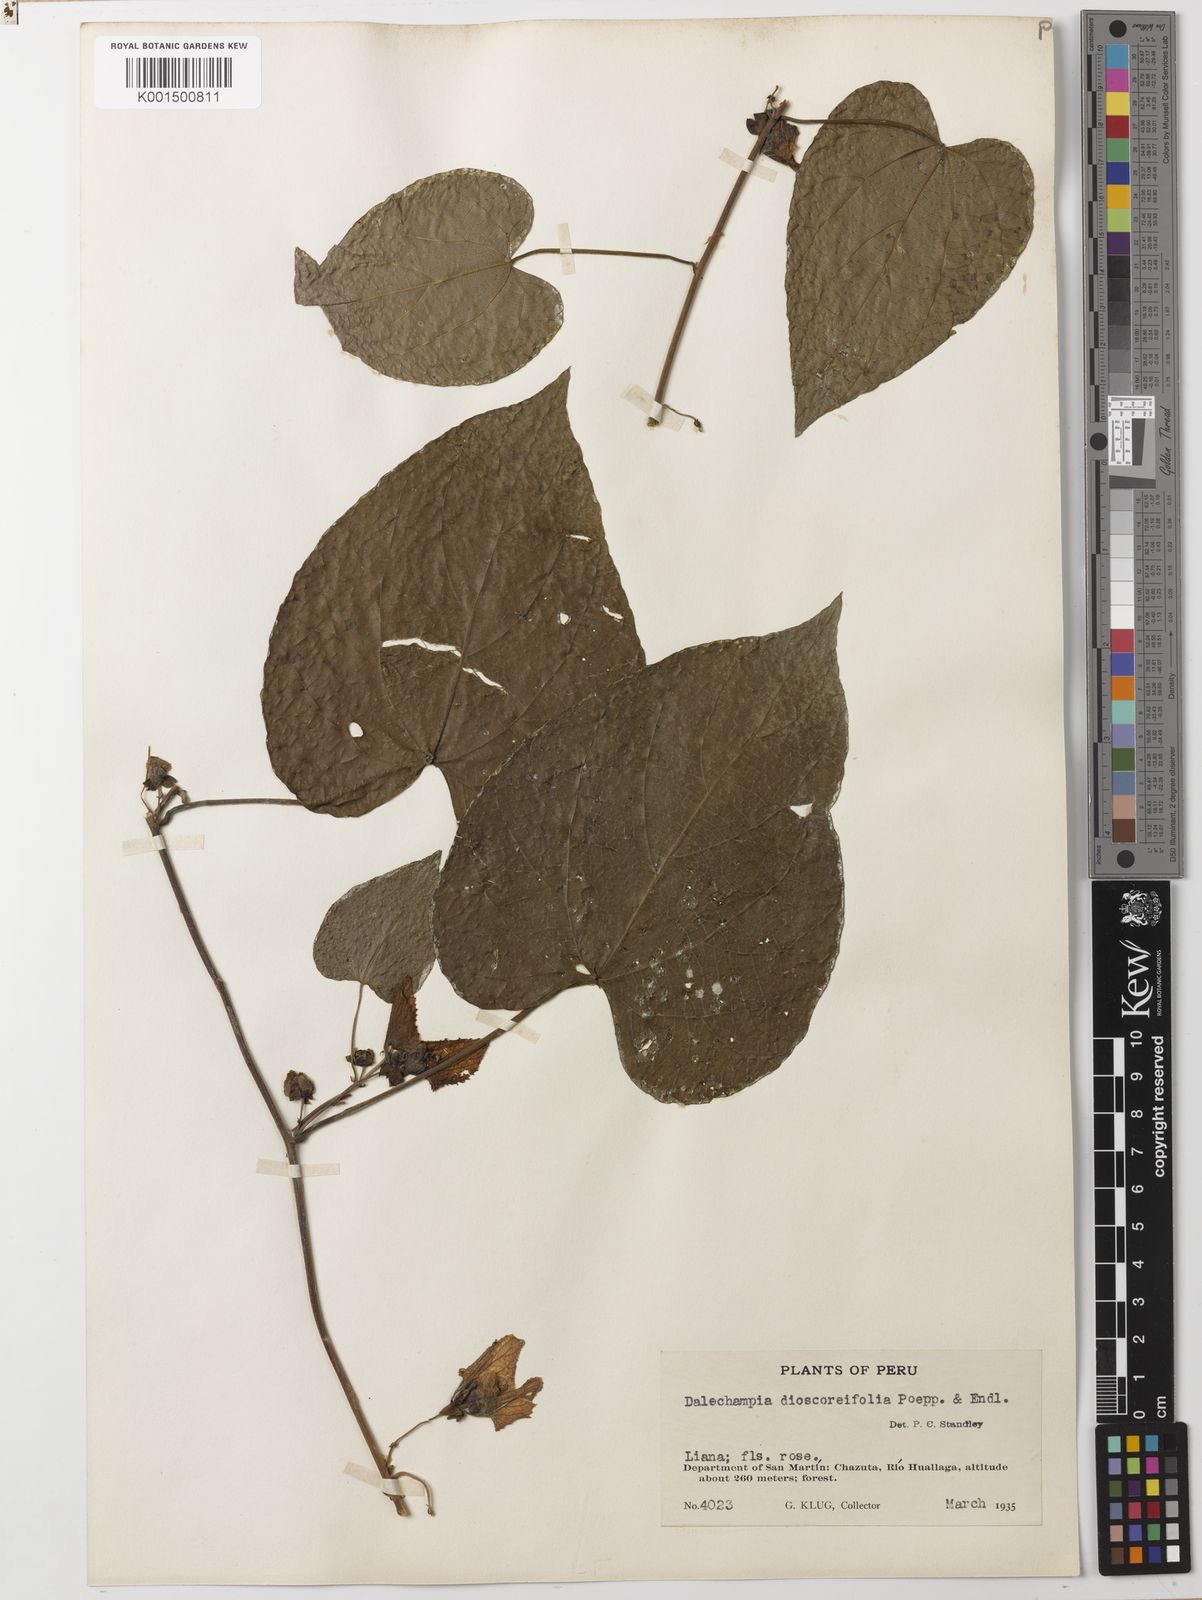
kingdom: Plantae
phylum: Tracheophyta
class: Magnoliopsida
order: Malpighiales
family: Euphorbiaceae
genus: Dalechampia
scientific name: Dalechampia dioscoreifolia
